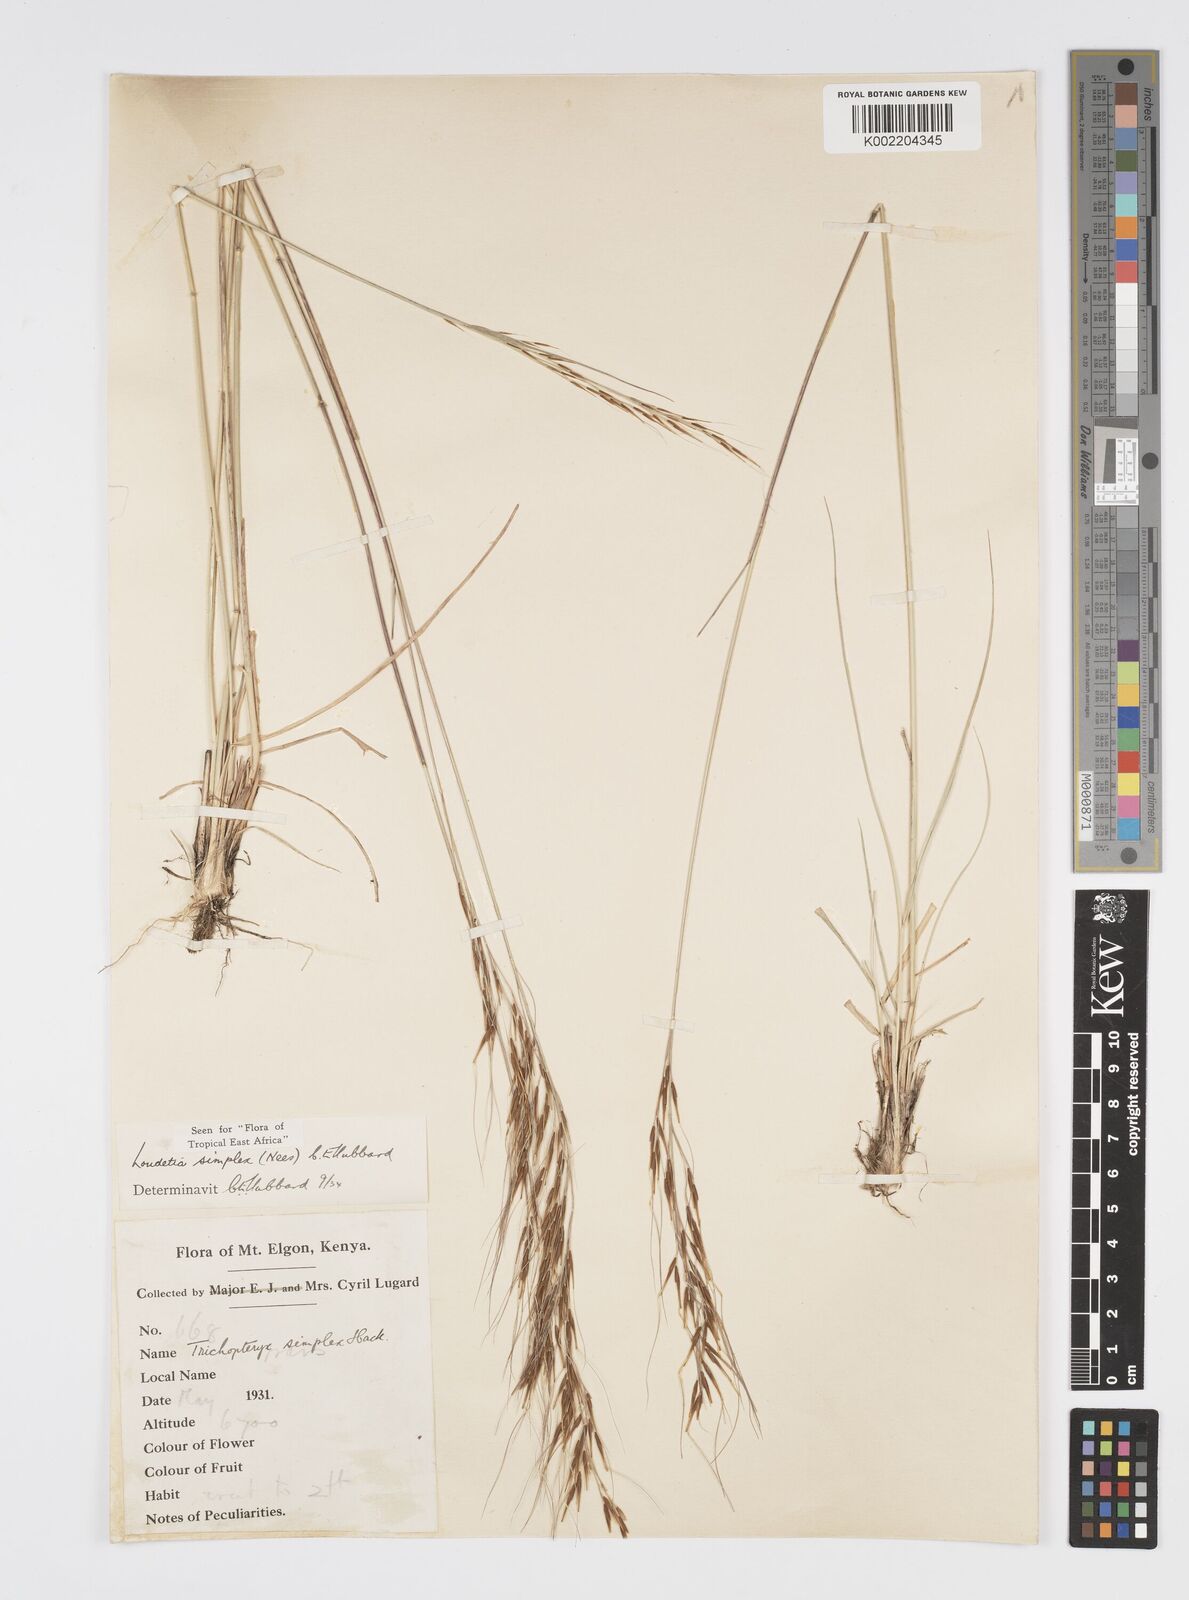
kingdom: Plantae
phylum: Tracheophyta
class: Liliopsida
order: Poales
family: Poaceae
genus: Loudetia
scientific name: Loudetia simplex
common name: Common russet grass
